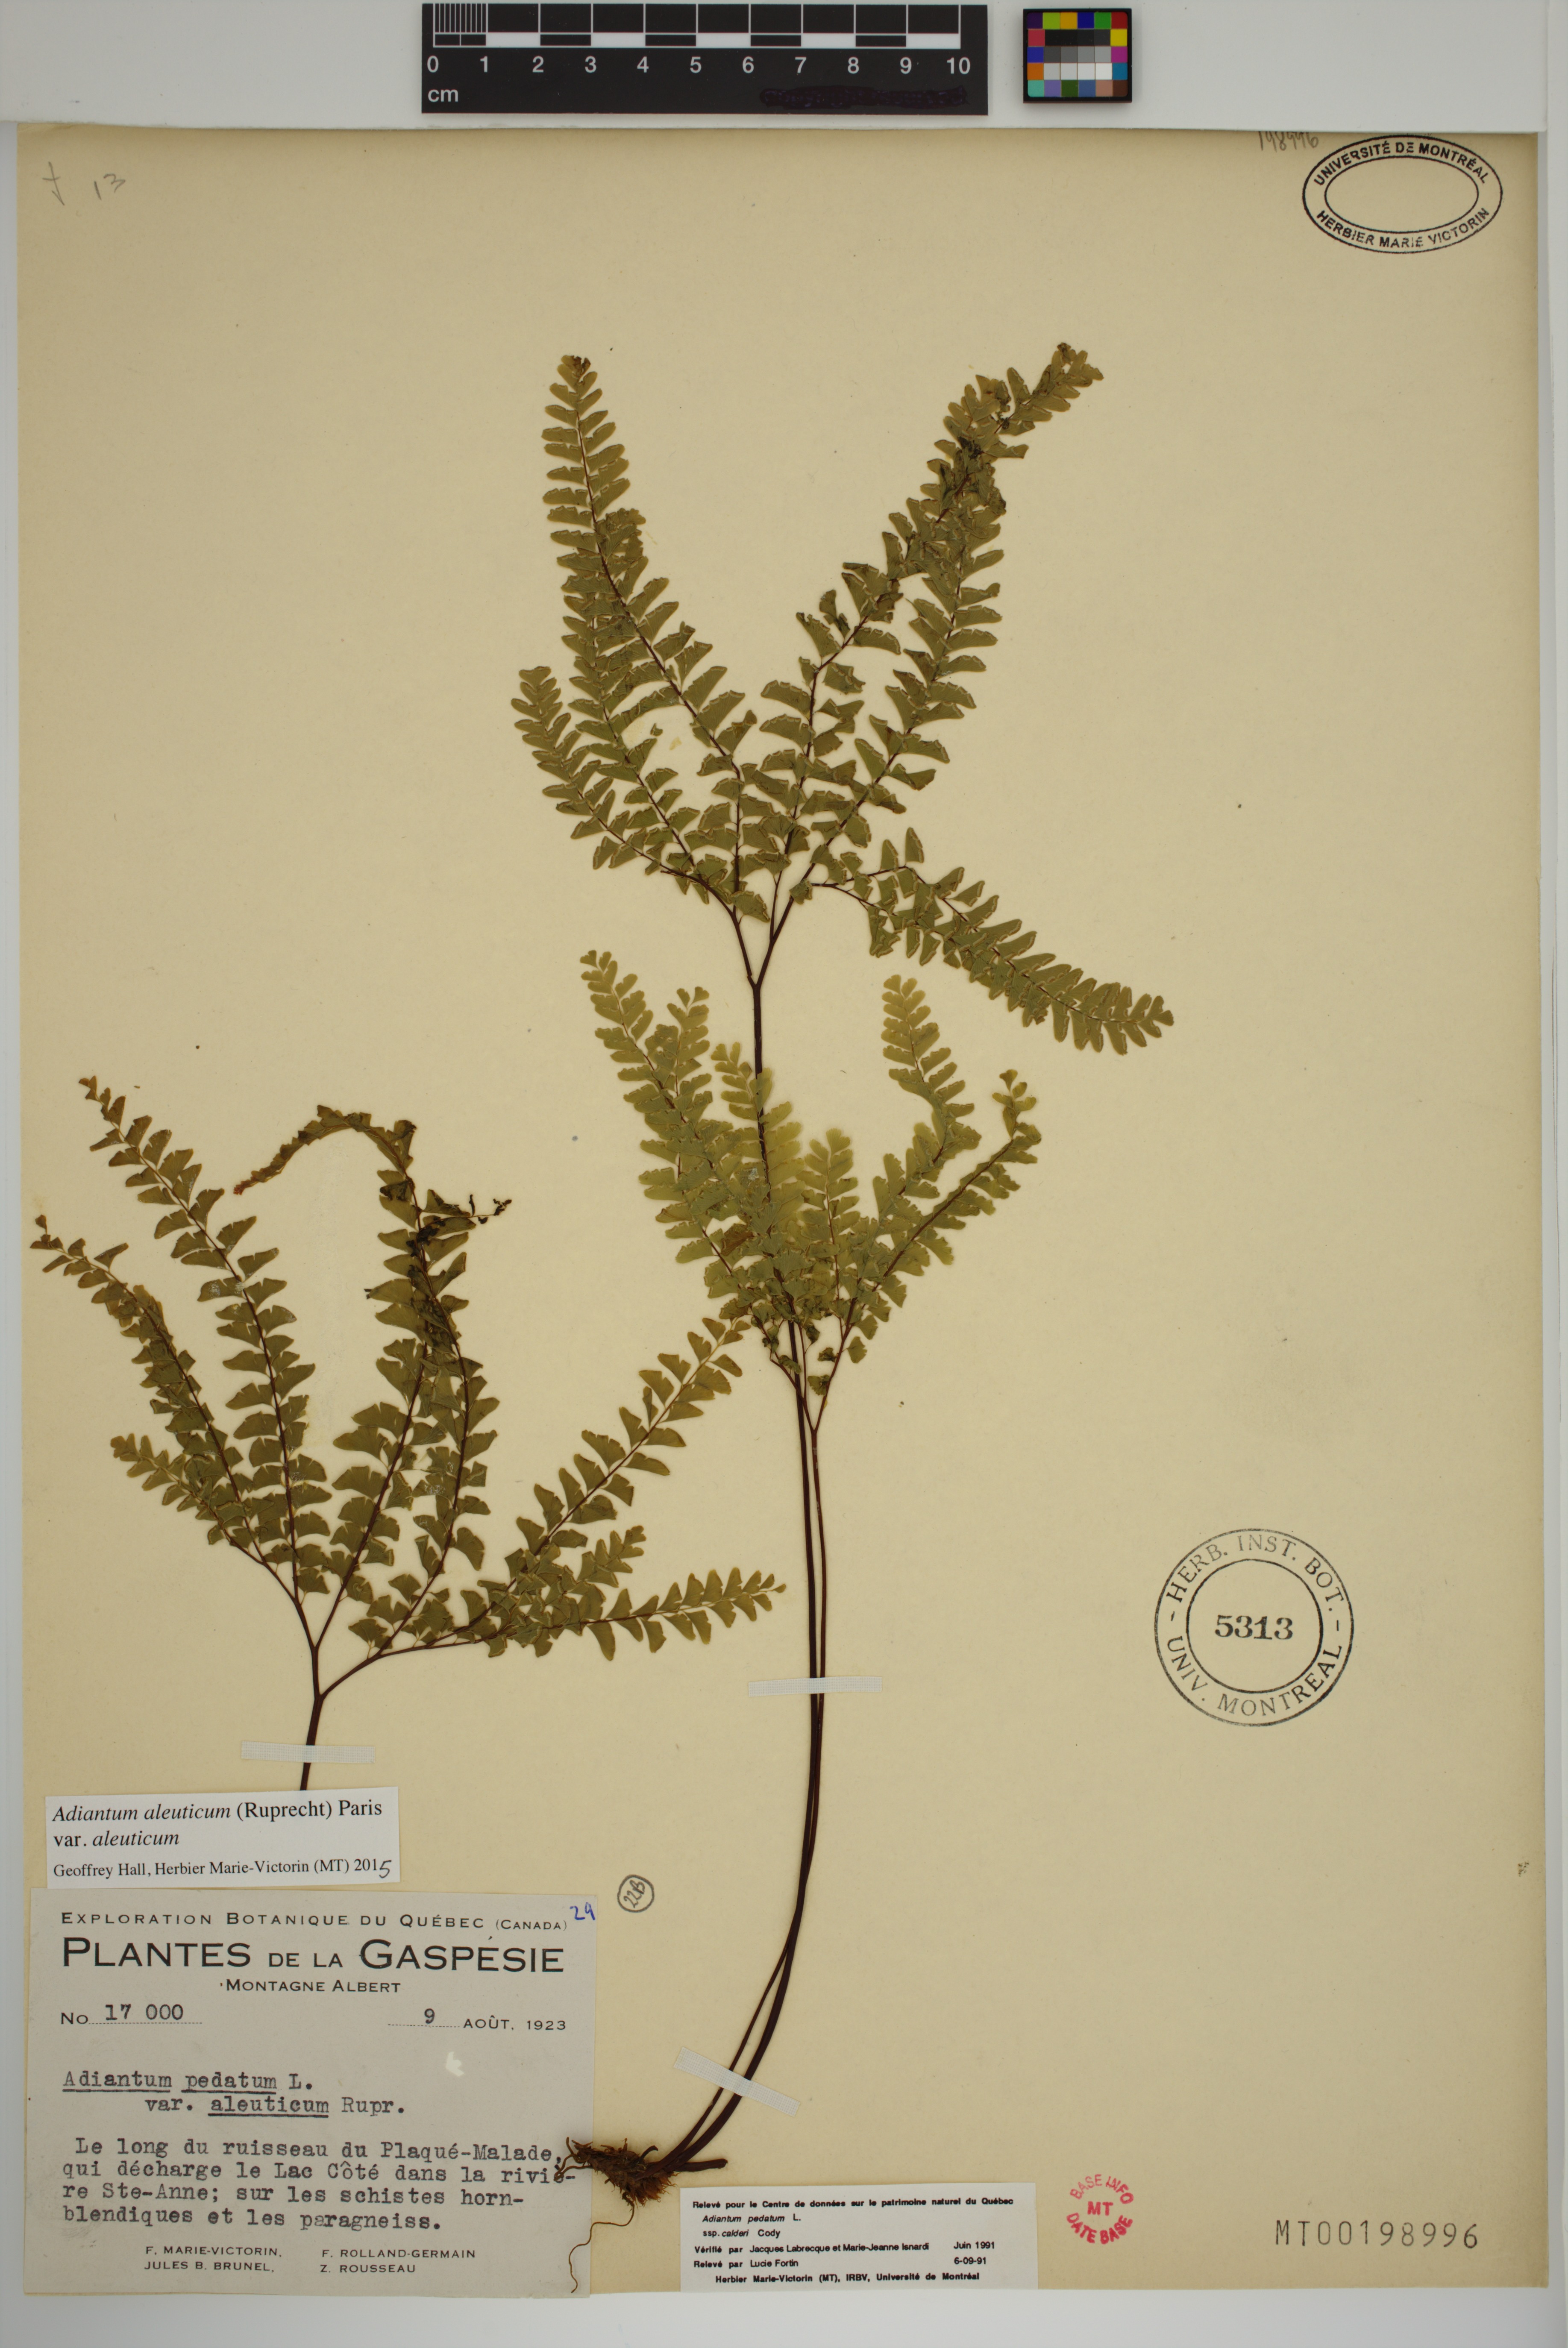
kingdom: Plantae
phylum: Tracheophyta
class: Polypodiopsida
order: Polypodiales
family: Pteridaceae
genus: Adiantum
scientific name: Adiantum aleuticum
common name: Aleutian maidenhair fern
